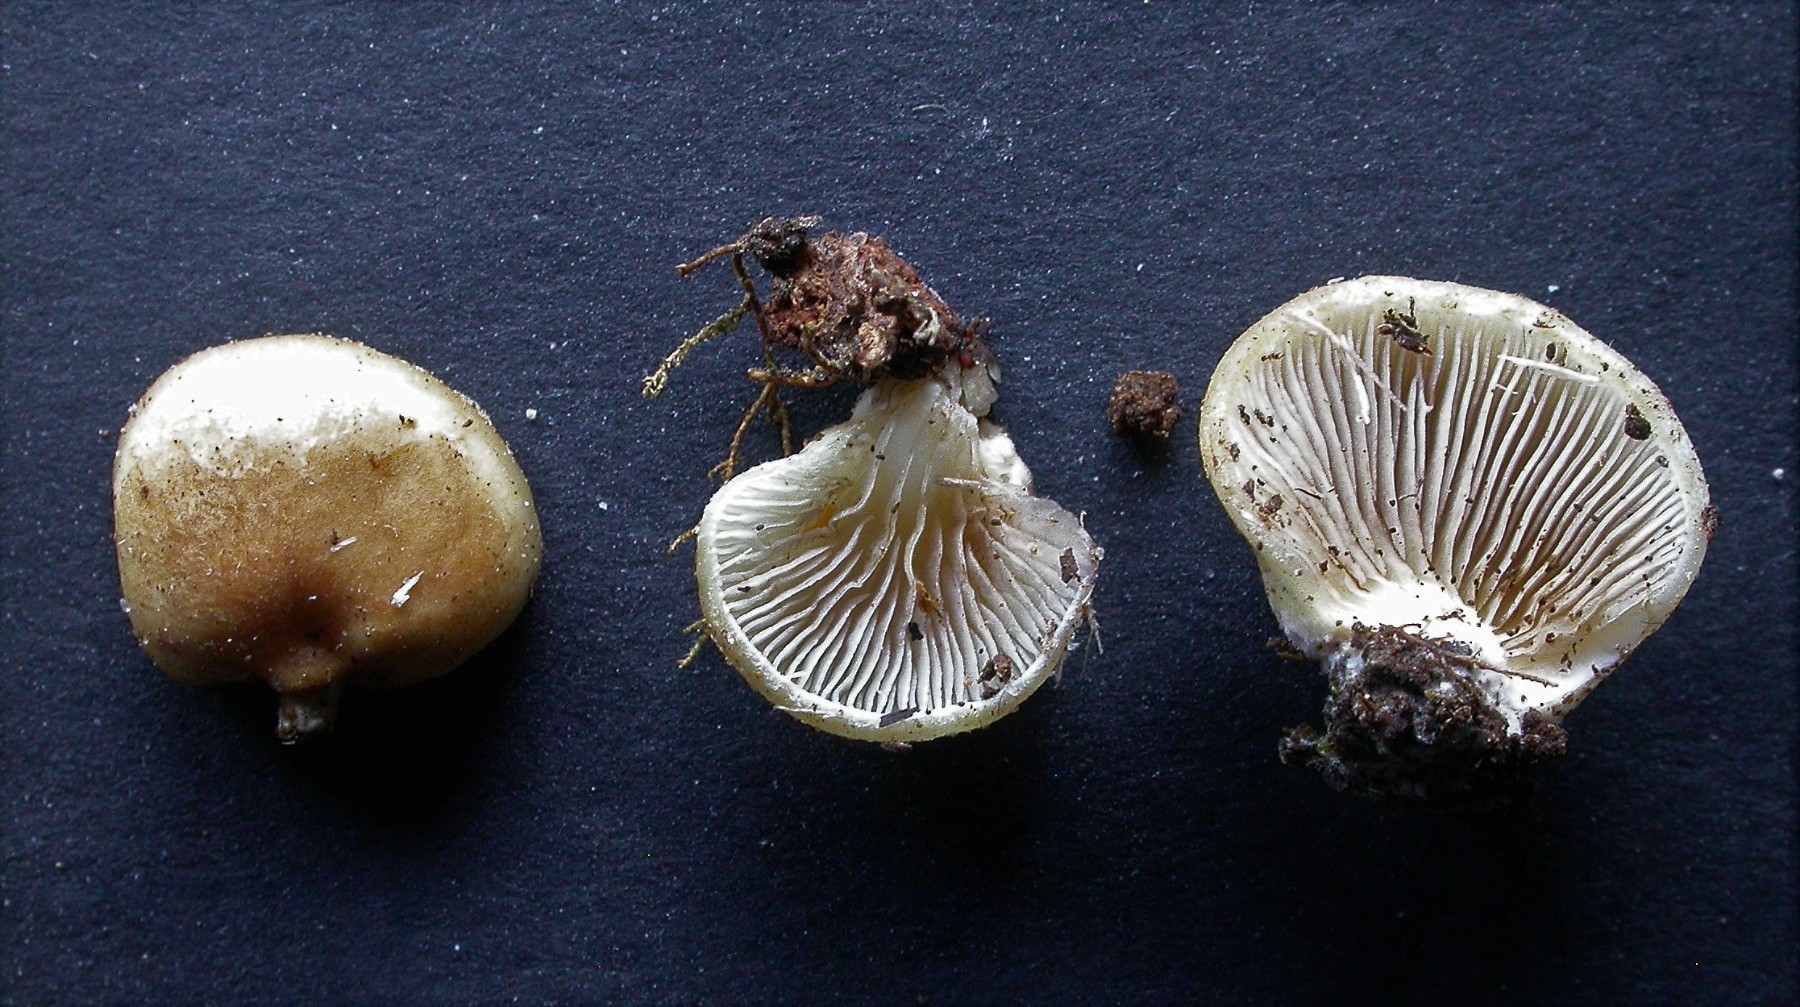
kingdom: Fungi
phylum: Basidiomycota
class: Agaricomycetes
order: Agaricales
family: Strophariaceae
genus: Deconica
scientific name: Deconica horizontalis
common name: ved-stråhat
